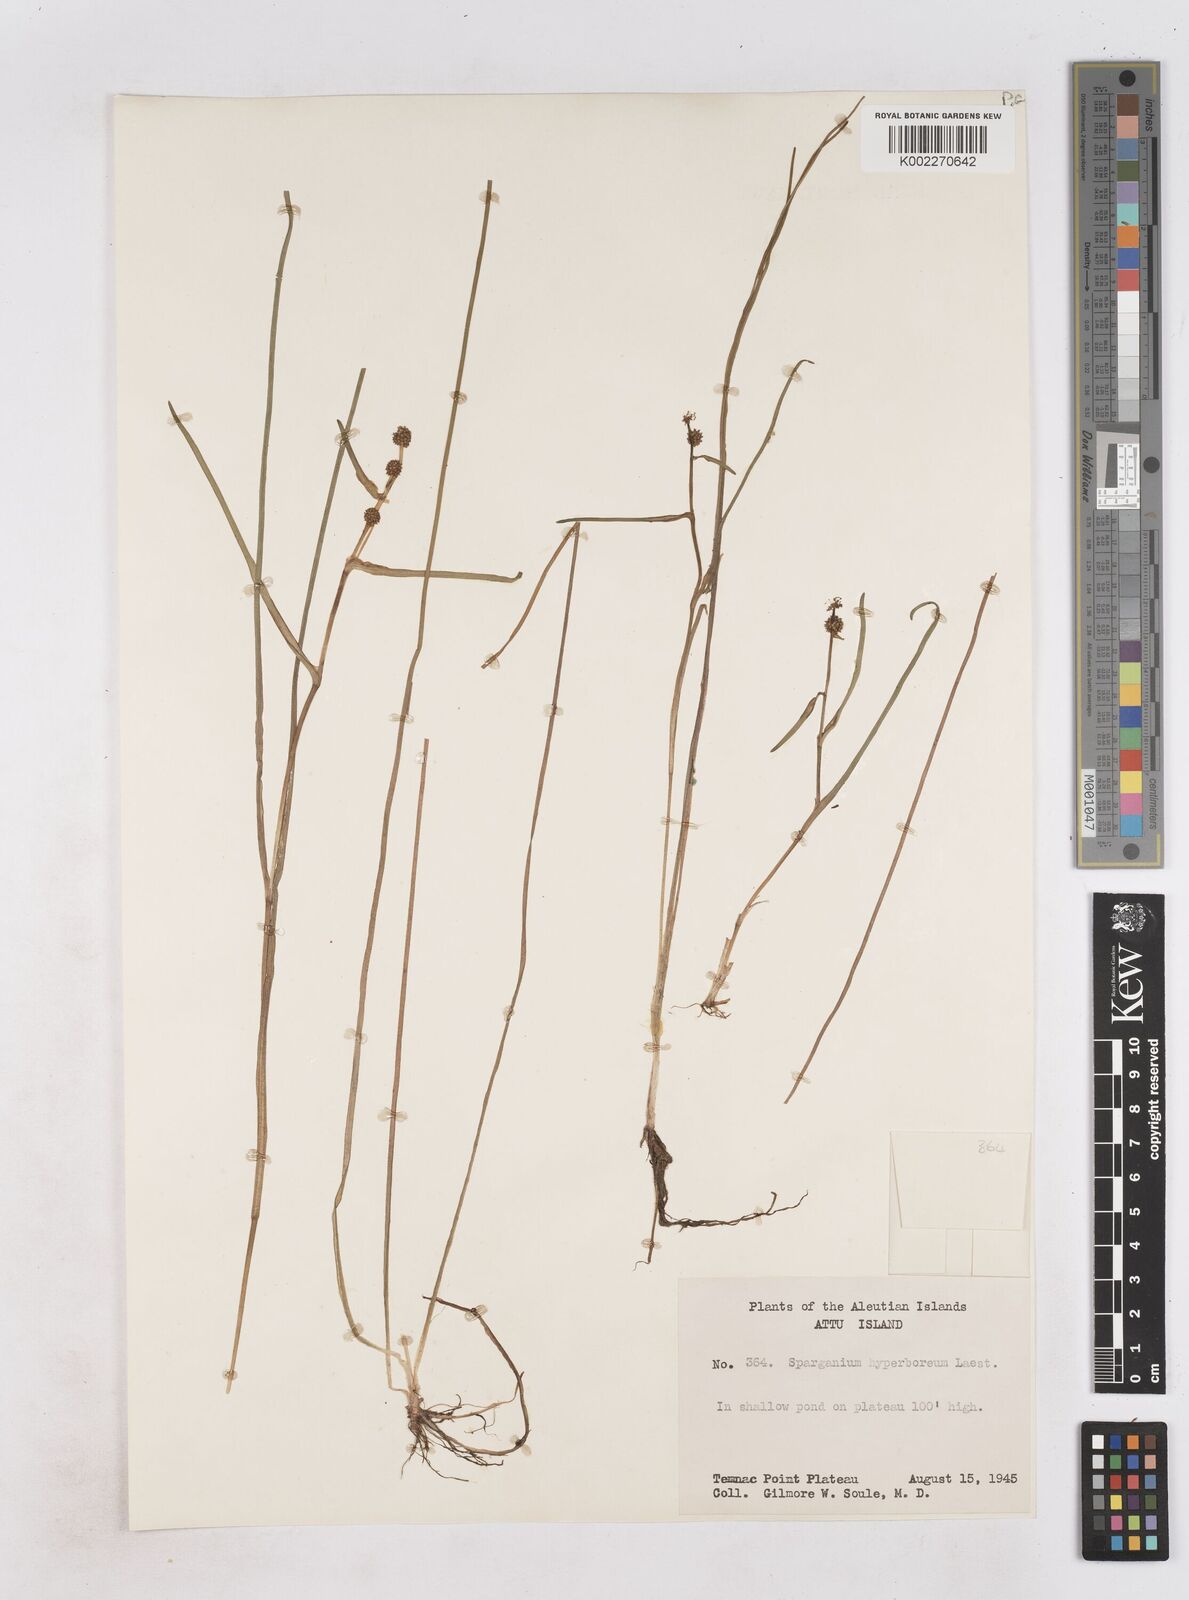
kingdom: Plantae
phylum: Tracheophyta
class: Liliopsida
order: Poales
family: Typhaceae
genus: Sparganium
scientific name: Sparganium hyperboreum
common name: Arctic burreed
